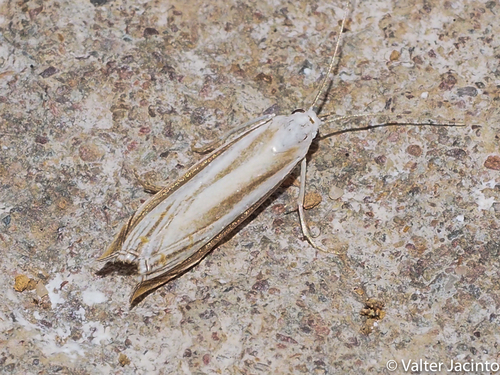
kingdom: Animalia
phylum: Arthropoda
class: Insecta
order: Lepidoptera
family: Crambidae
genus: Mesocrambus
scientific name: Mesocrambus candiellus
